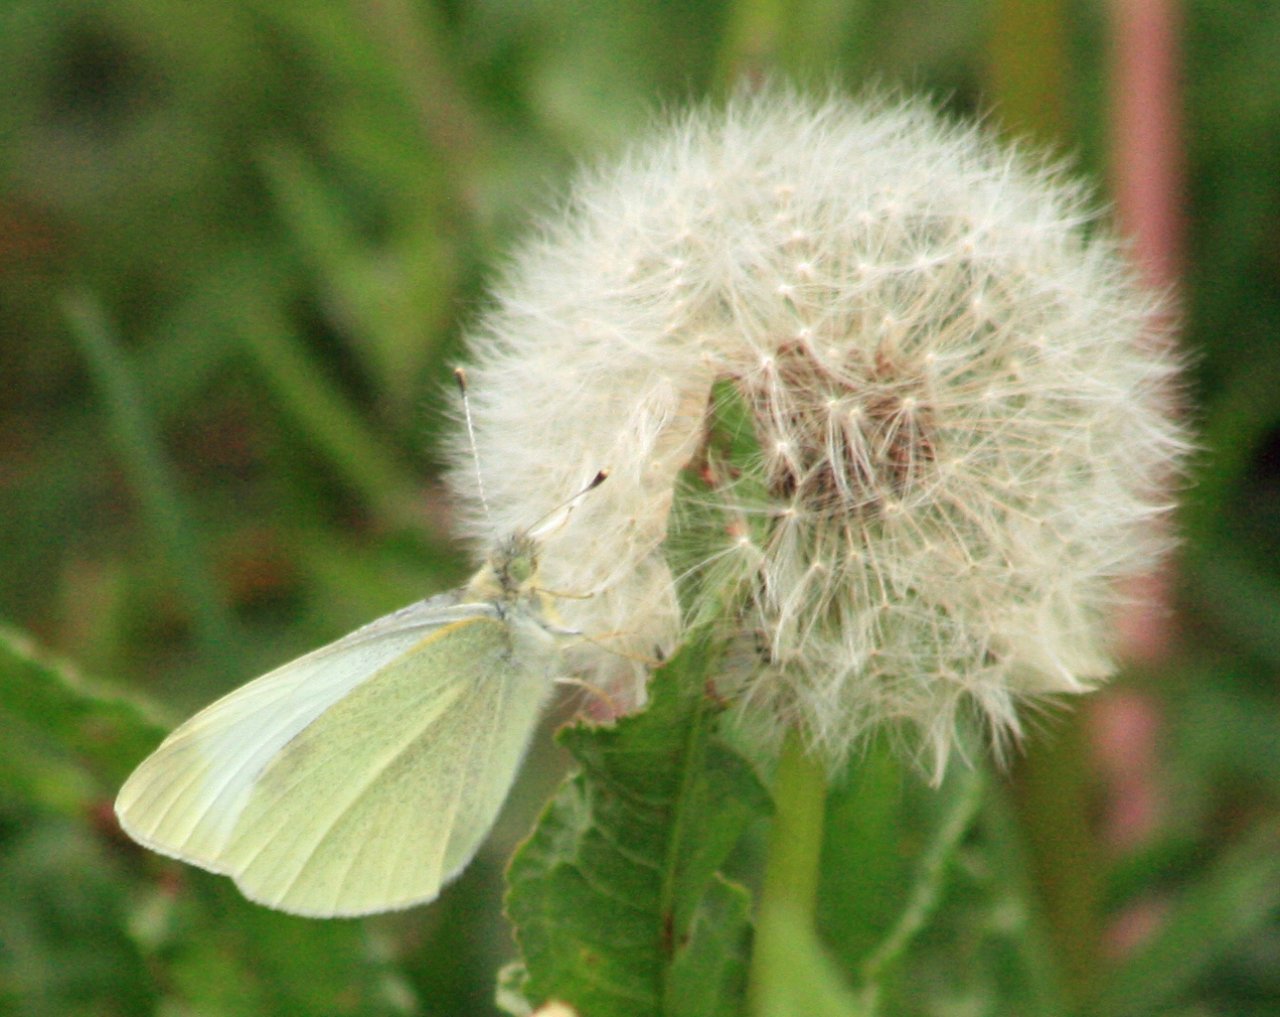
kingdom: Animalia
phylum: Arthropoda
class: Insecta
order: Lepidoptera
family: Pieridae
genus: Pieris
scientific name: Pieris rapae
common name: Cabbage White
